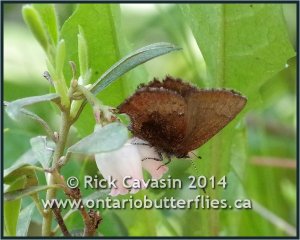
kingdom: Animalia
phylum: Arthropoda
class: Insecta
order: Lepidoptera
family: Lycaenidae
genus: Incisalia
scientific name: Incisalia irioides
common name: Brown Elfin
